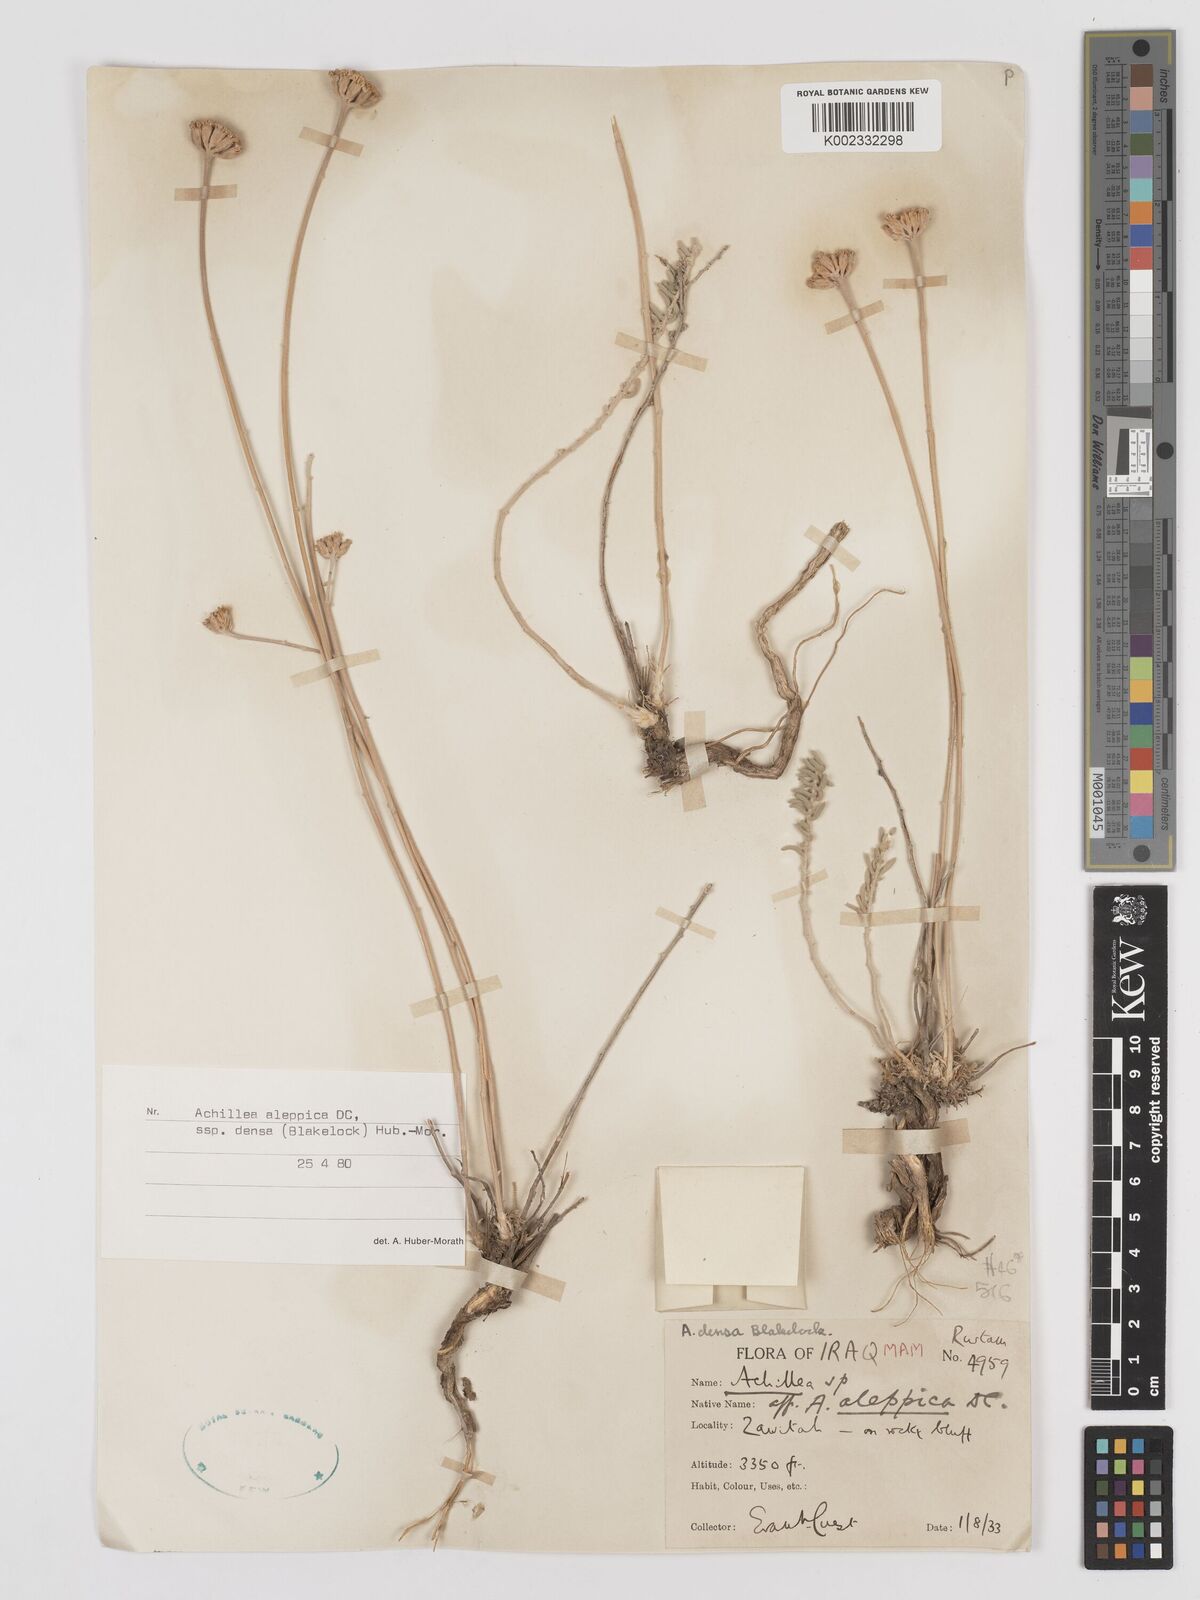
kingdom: Plantae
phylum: Tracheophyta
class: Magnoliopsida
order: Asterales
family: Asteraceae
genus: Achillea
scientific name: Achillea aleppica
